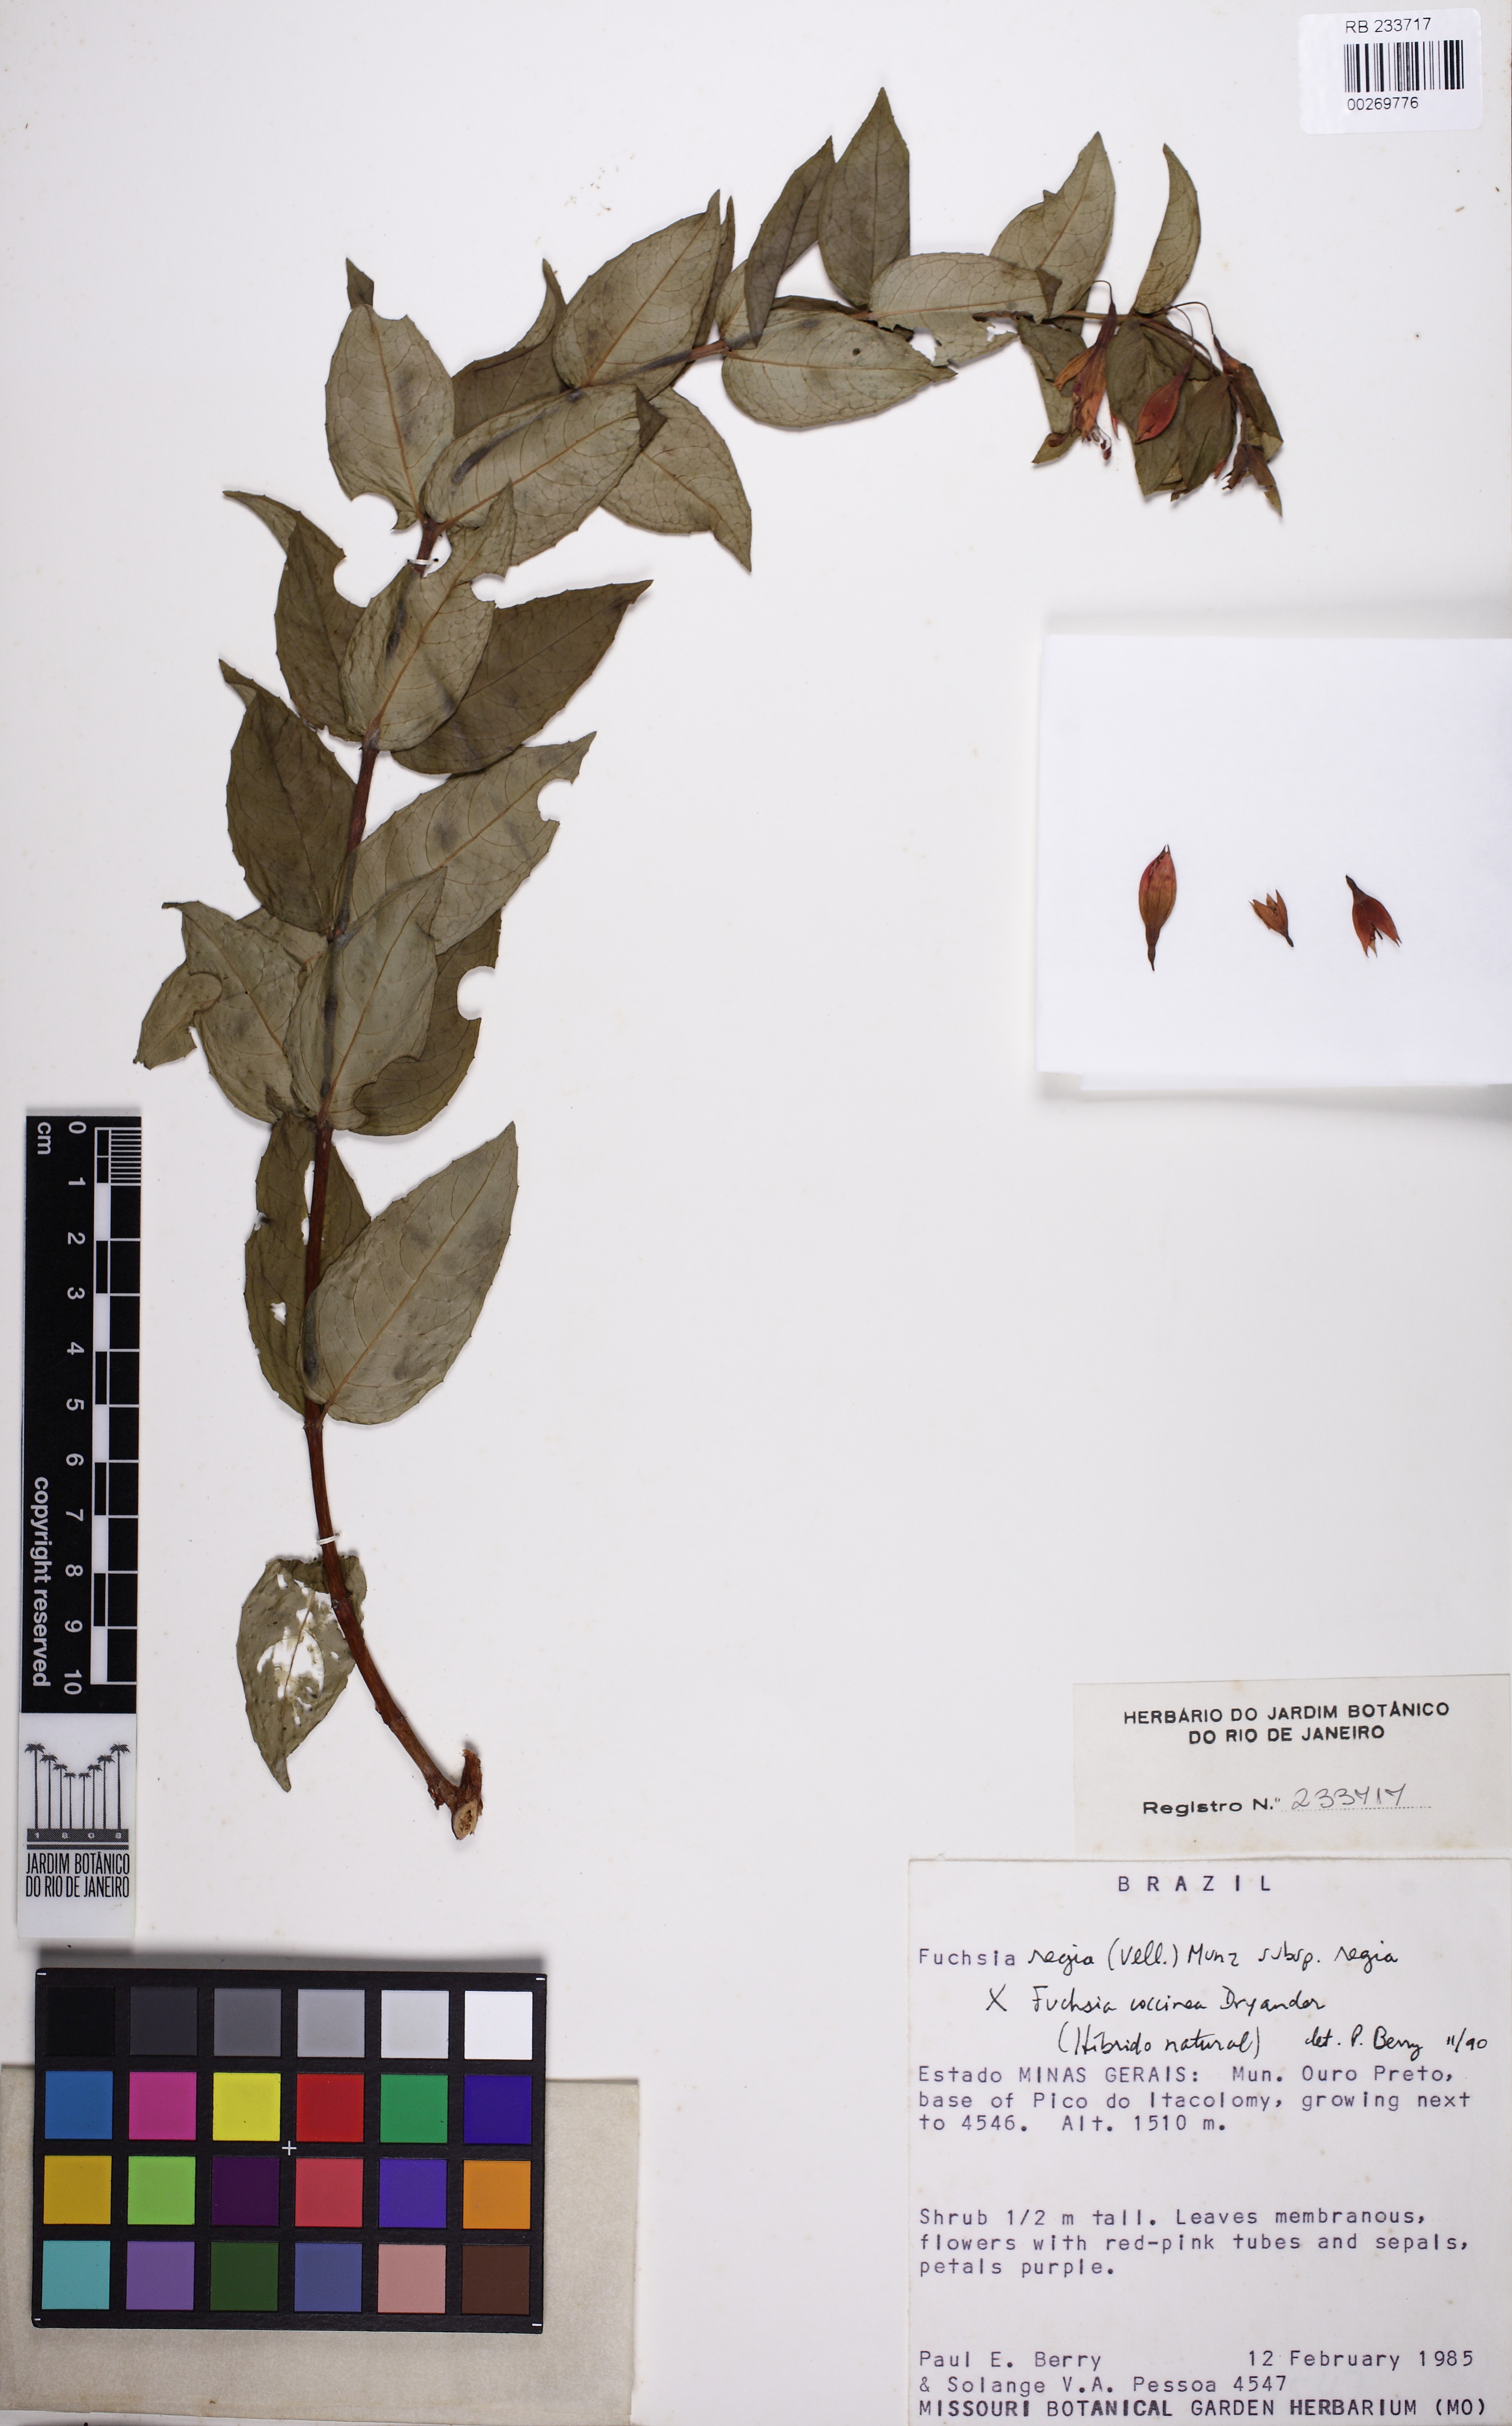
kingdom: Plantae
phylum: Tracheophyta
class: Magnoliopsida
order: Myrtales
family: Onagraceae
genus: Fuchsia
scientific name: Fuchsia regia
